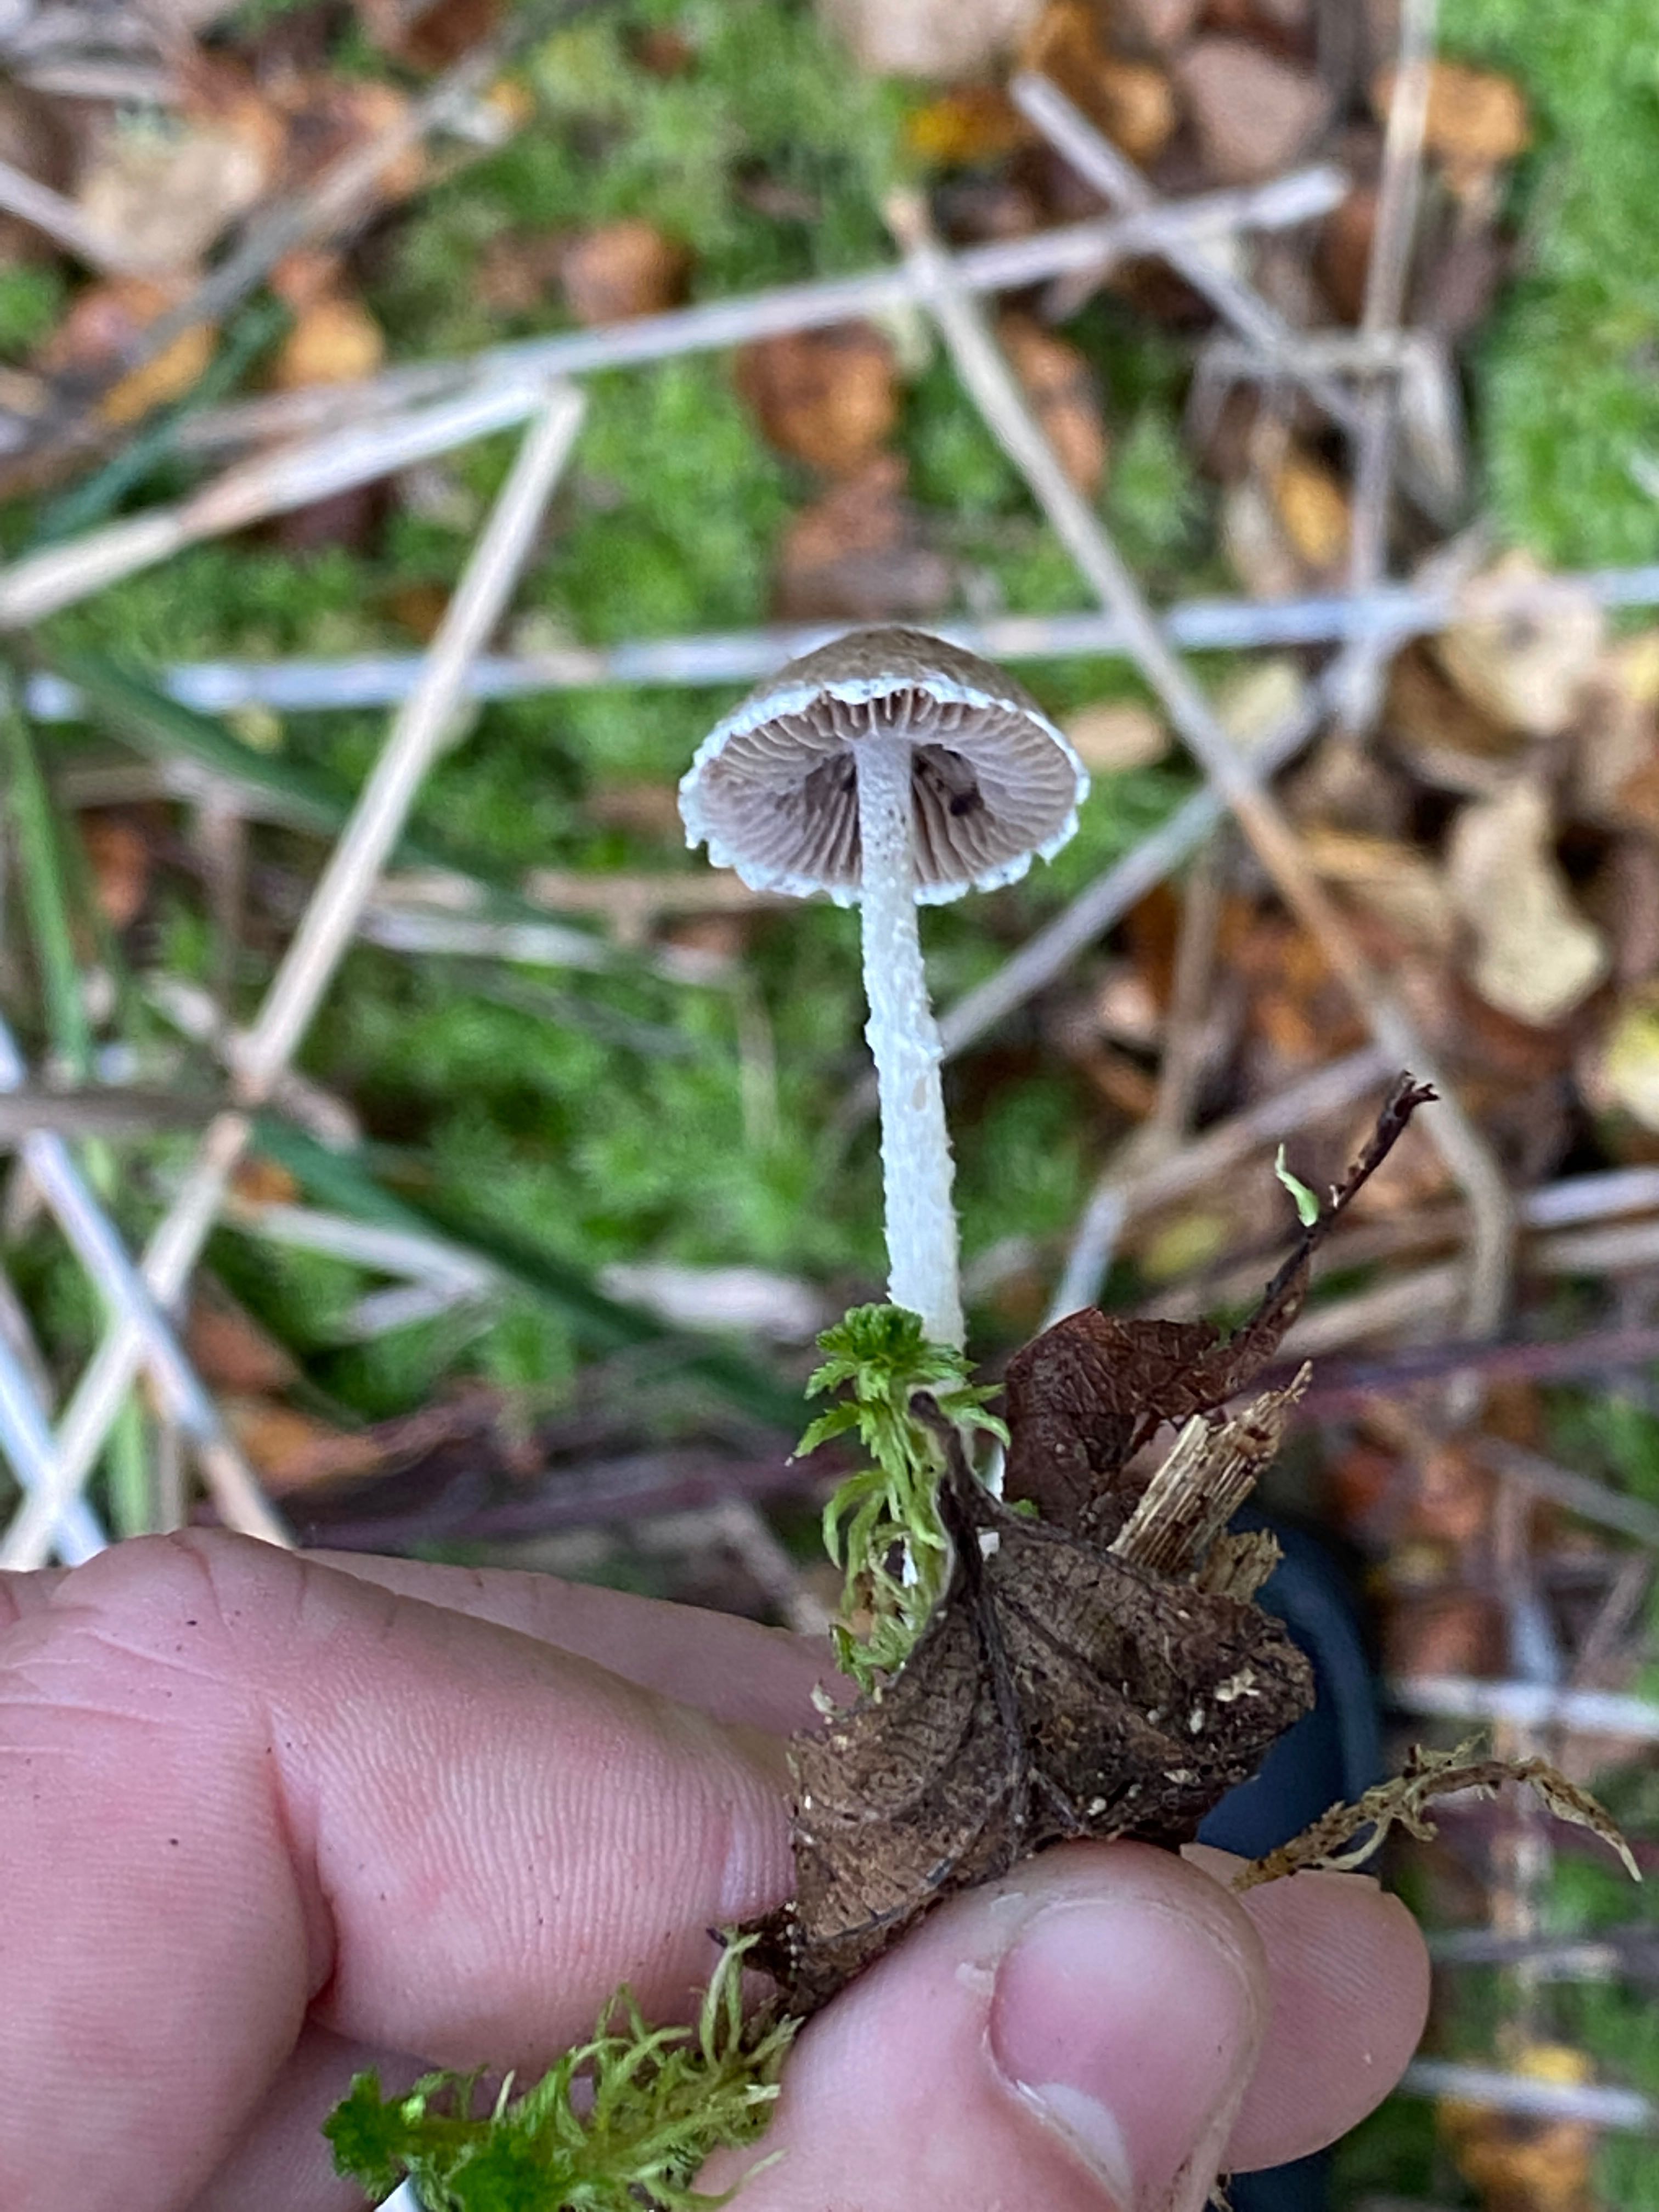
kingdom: Fungi
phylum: Basidiomycota
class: Agaricomycetes
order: Agaricales
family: Psathyrellaceae
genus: Psathyrella
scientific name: Psathyrella
